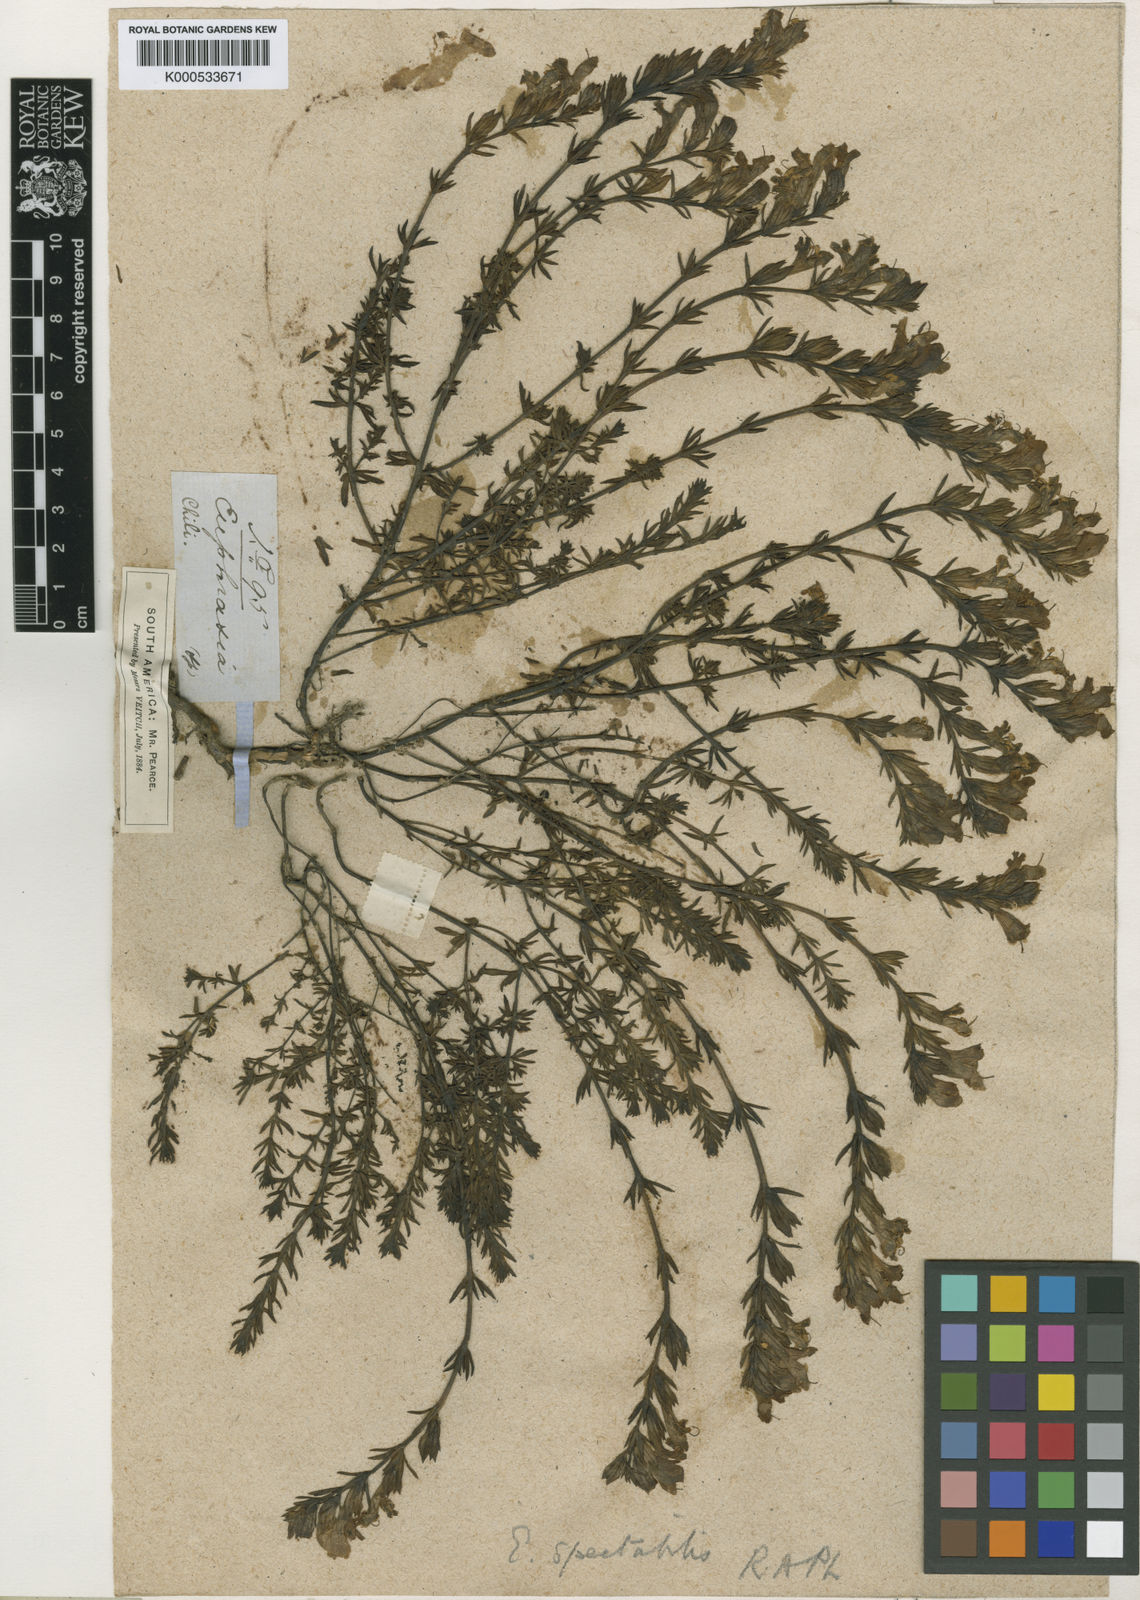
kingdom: Plantae
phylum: Tracheophyta
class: Magnoliopsida
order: Lamiales
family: Orobanchaceae
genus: Euphrasia
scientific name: Euphrasia trifida
